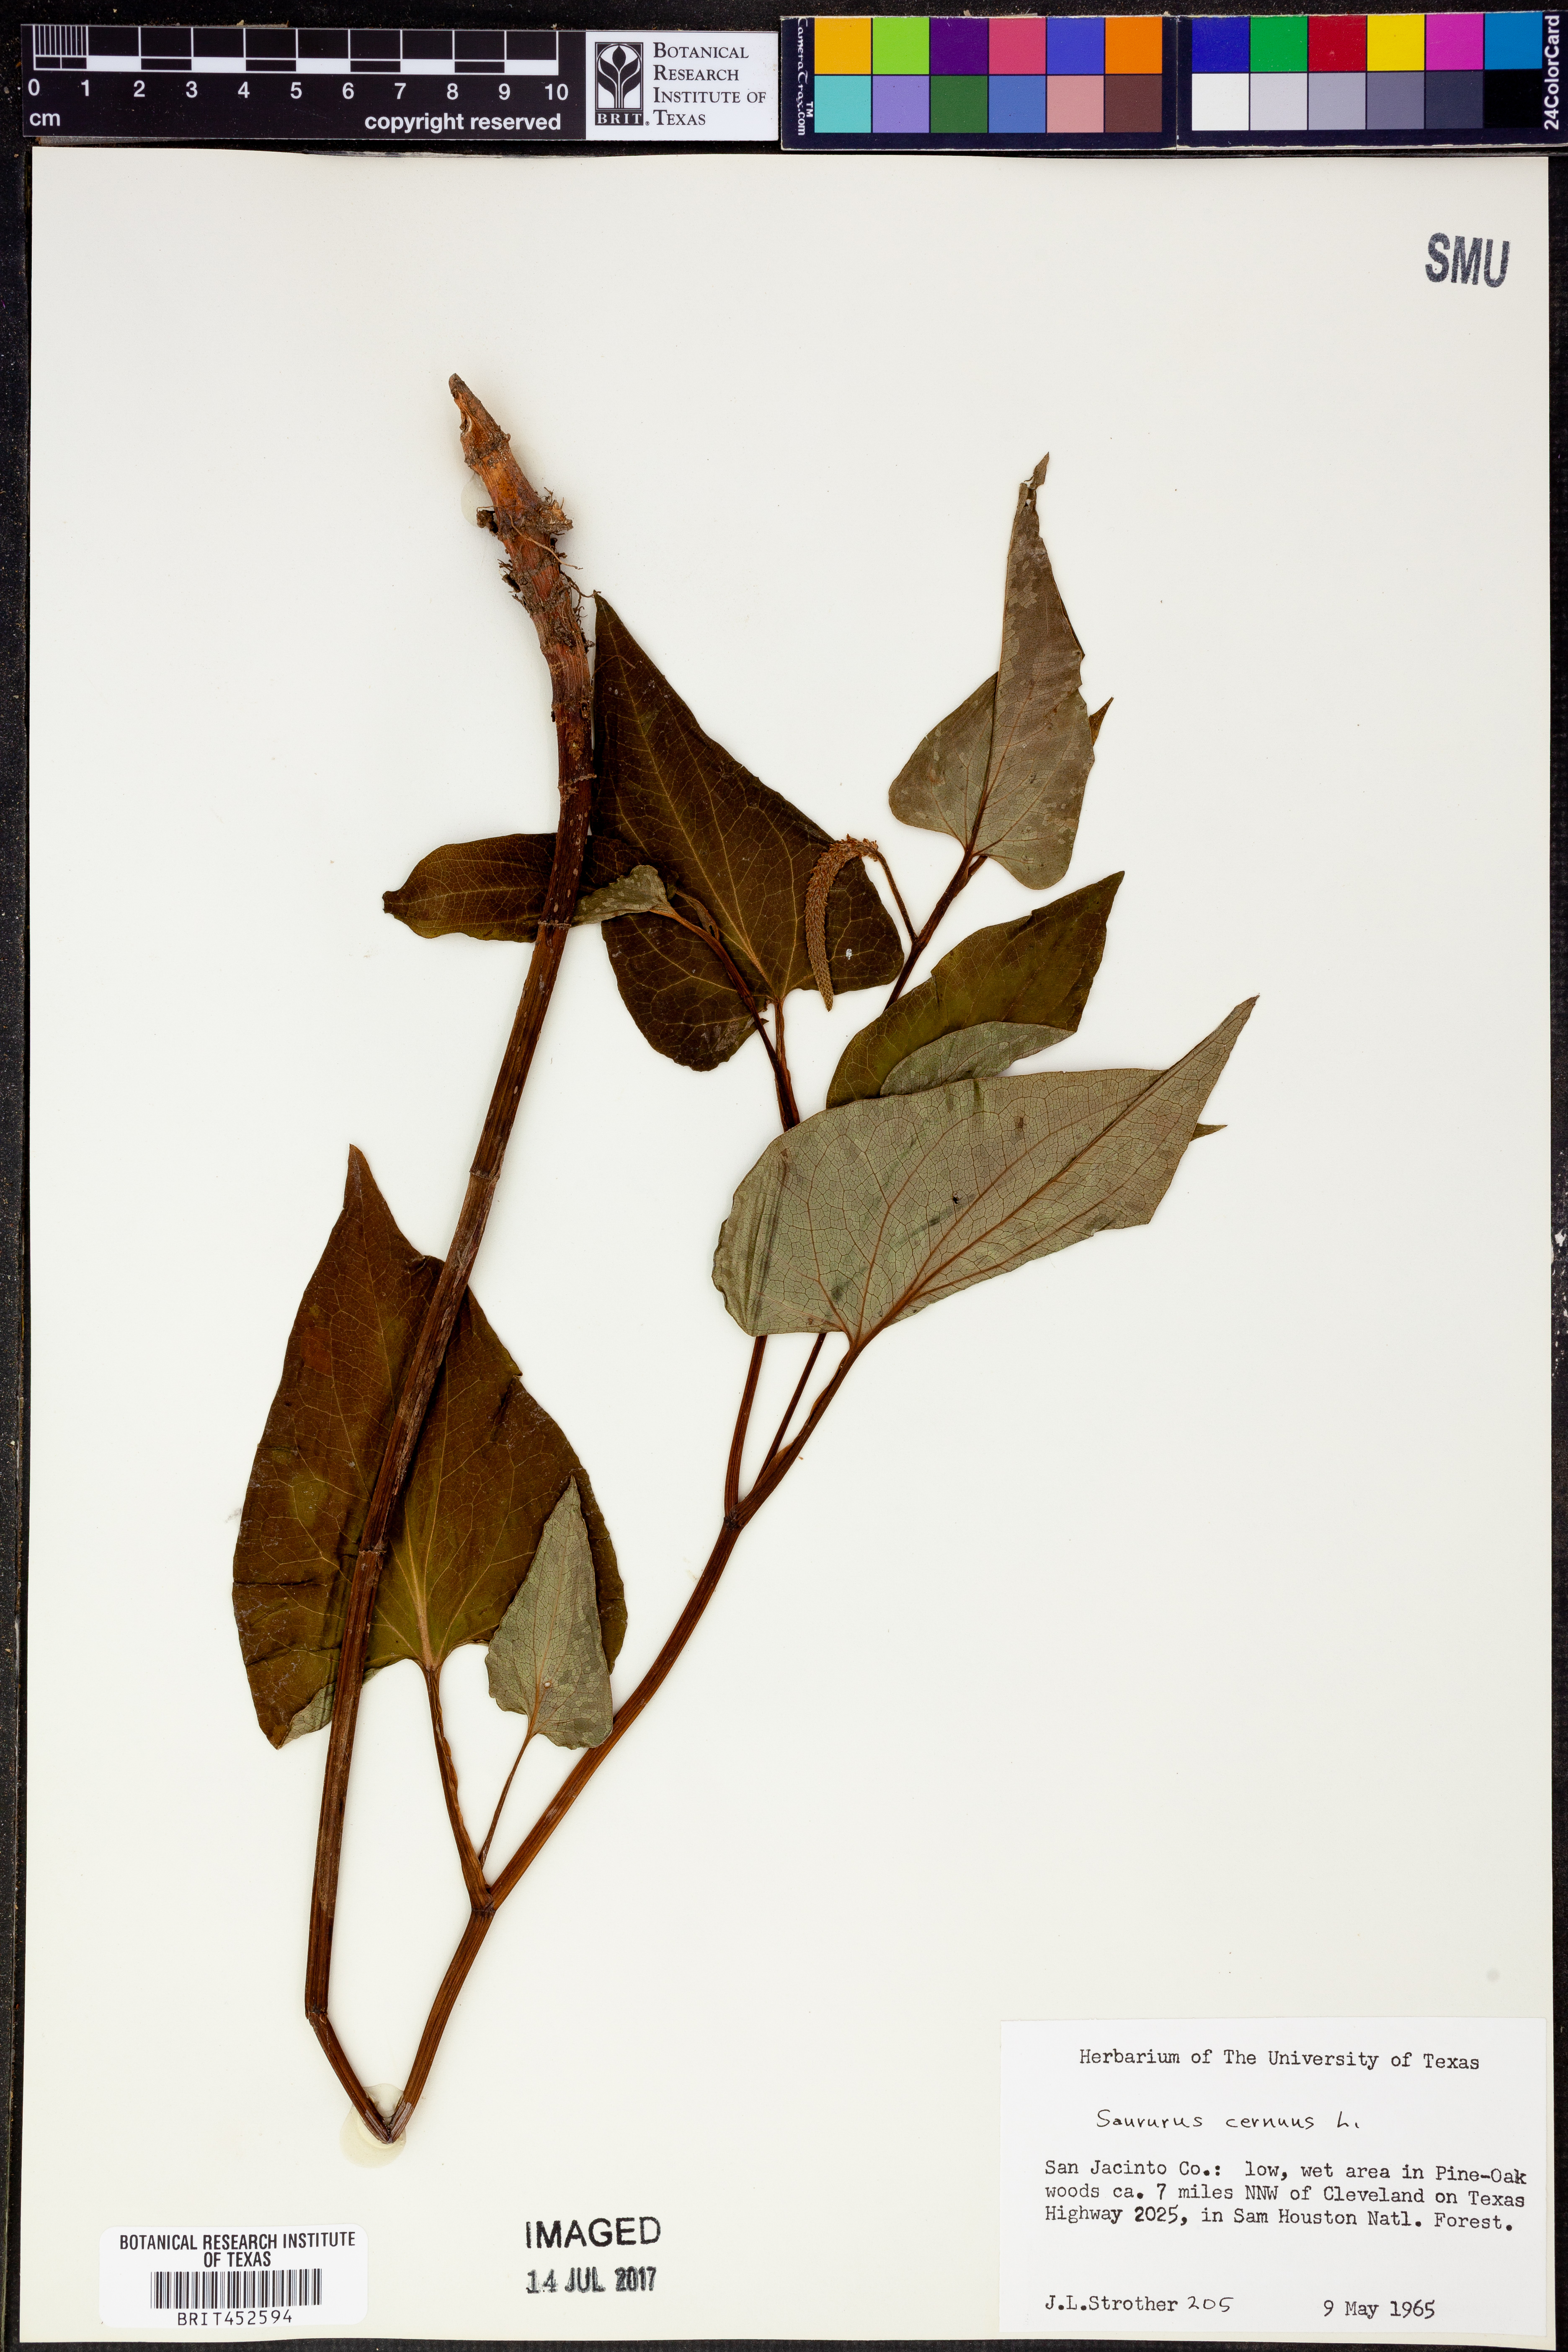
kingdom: Plantae
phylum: Tracheophyta
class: Magnoliopsida
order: Piperales
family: Saururaceae
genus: Saururus
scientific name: Saururus cernuus
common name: Lizard's-tail
